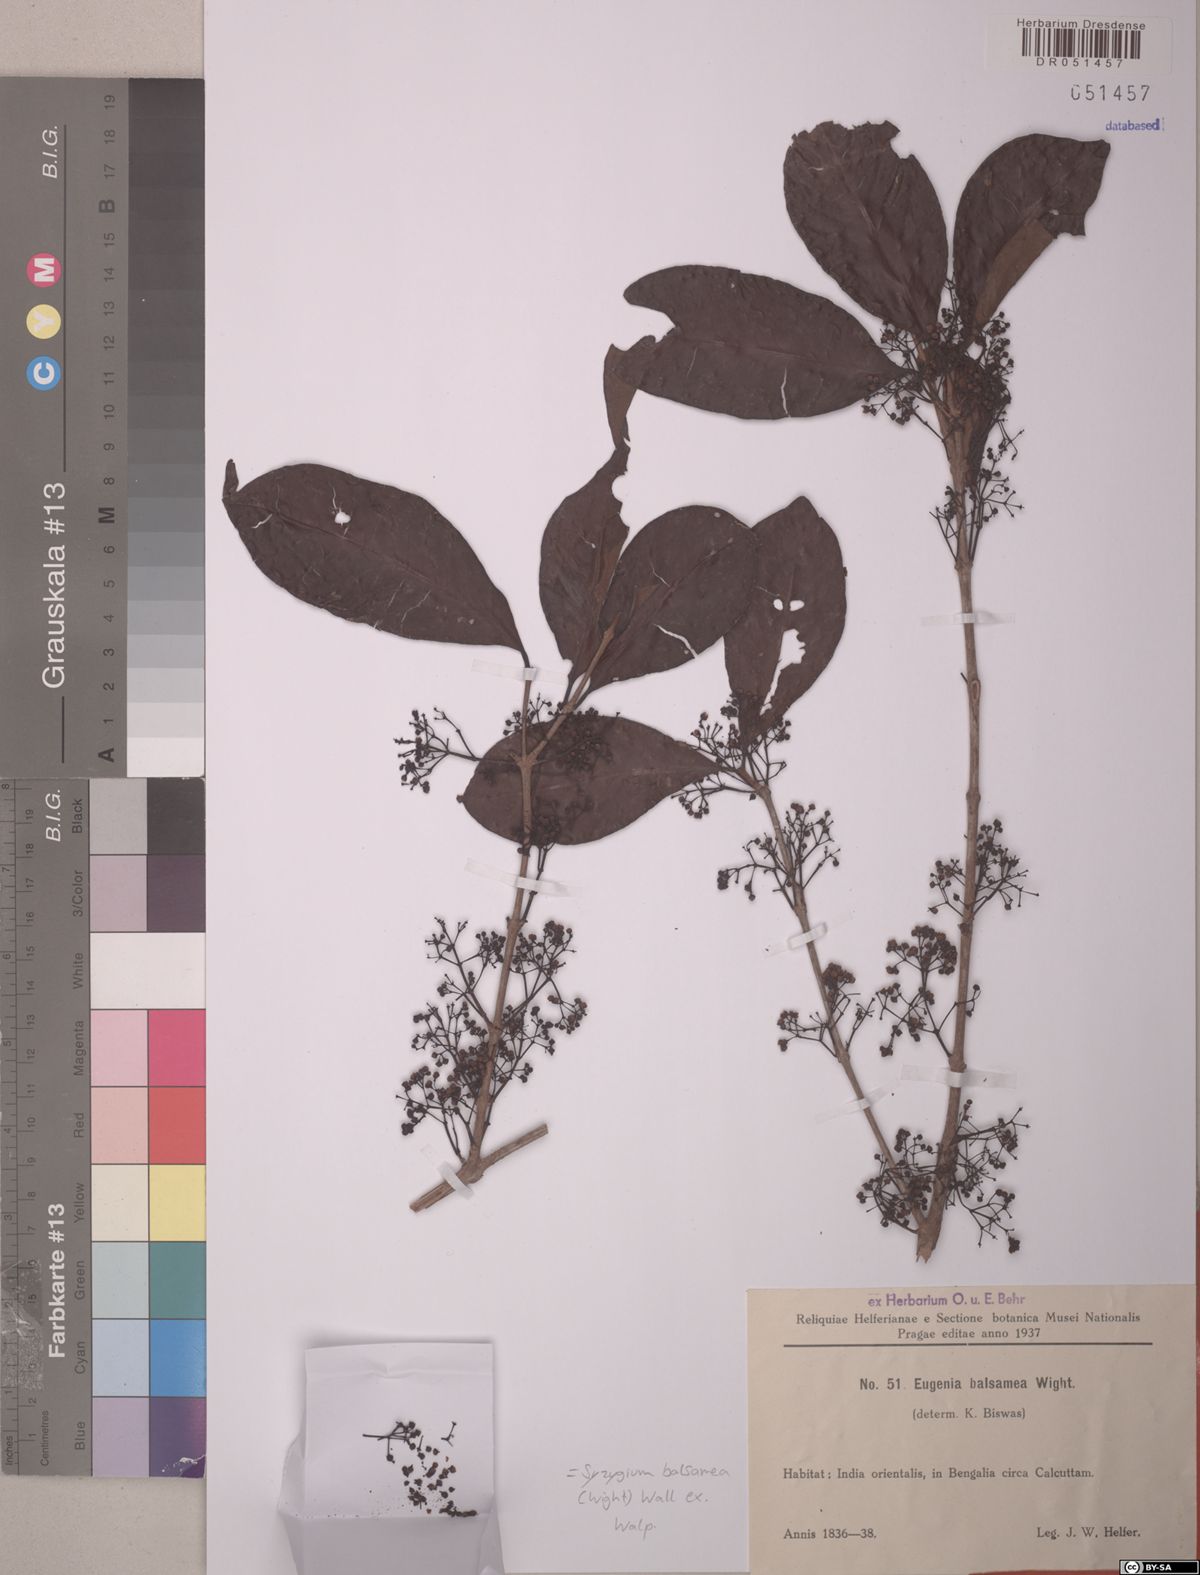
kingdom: Plantae
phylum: Tracheophyta
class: Magnoliopsida
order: Myrtales
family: Myrtaceae
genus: Syzygium
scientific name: Syzygium balsameum
